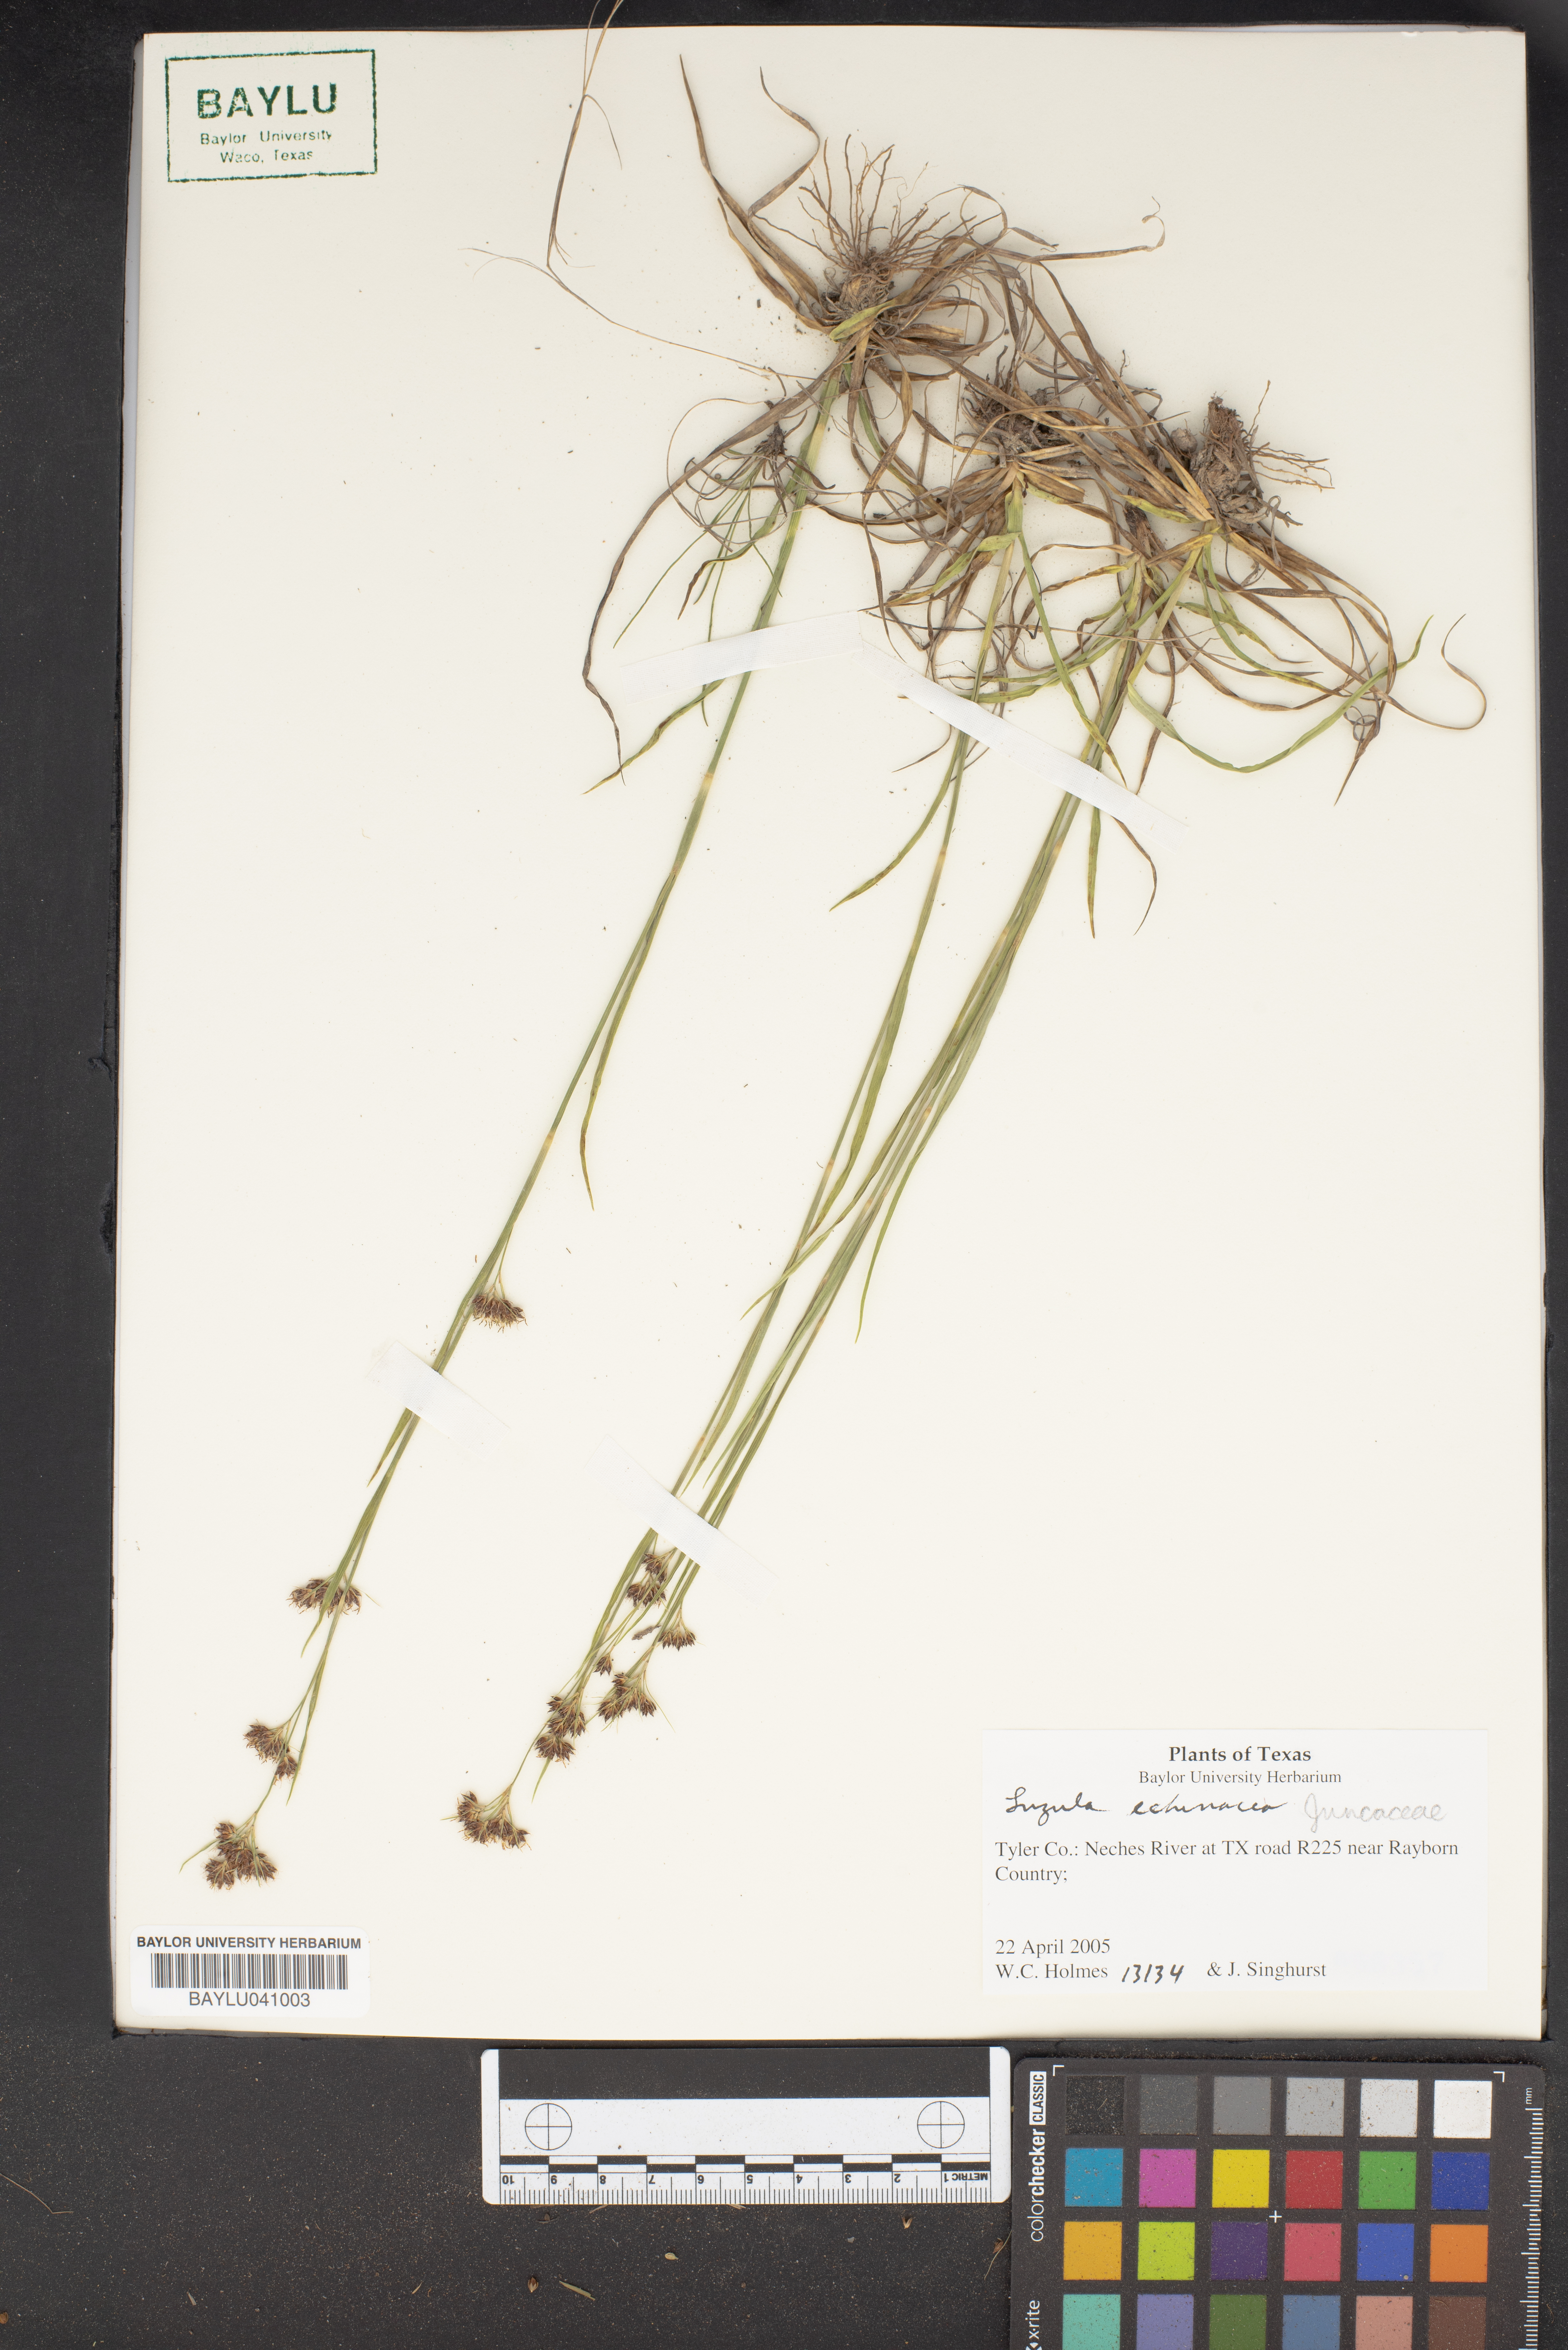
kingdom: Plantae
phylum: Tracheophyta
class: Liliopsida
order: Poales
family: Juncaceae
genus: Luzula
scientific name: Luzula
